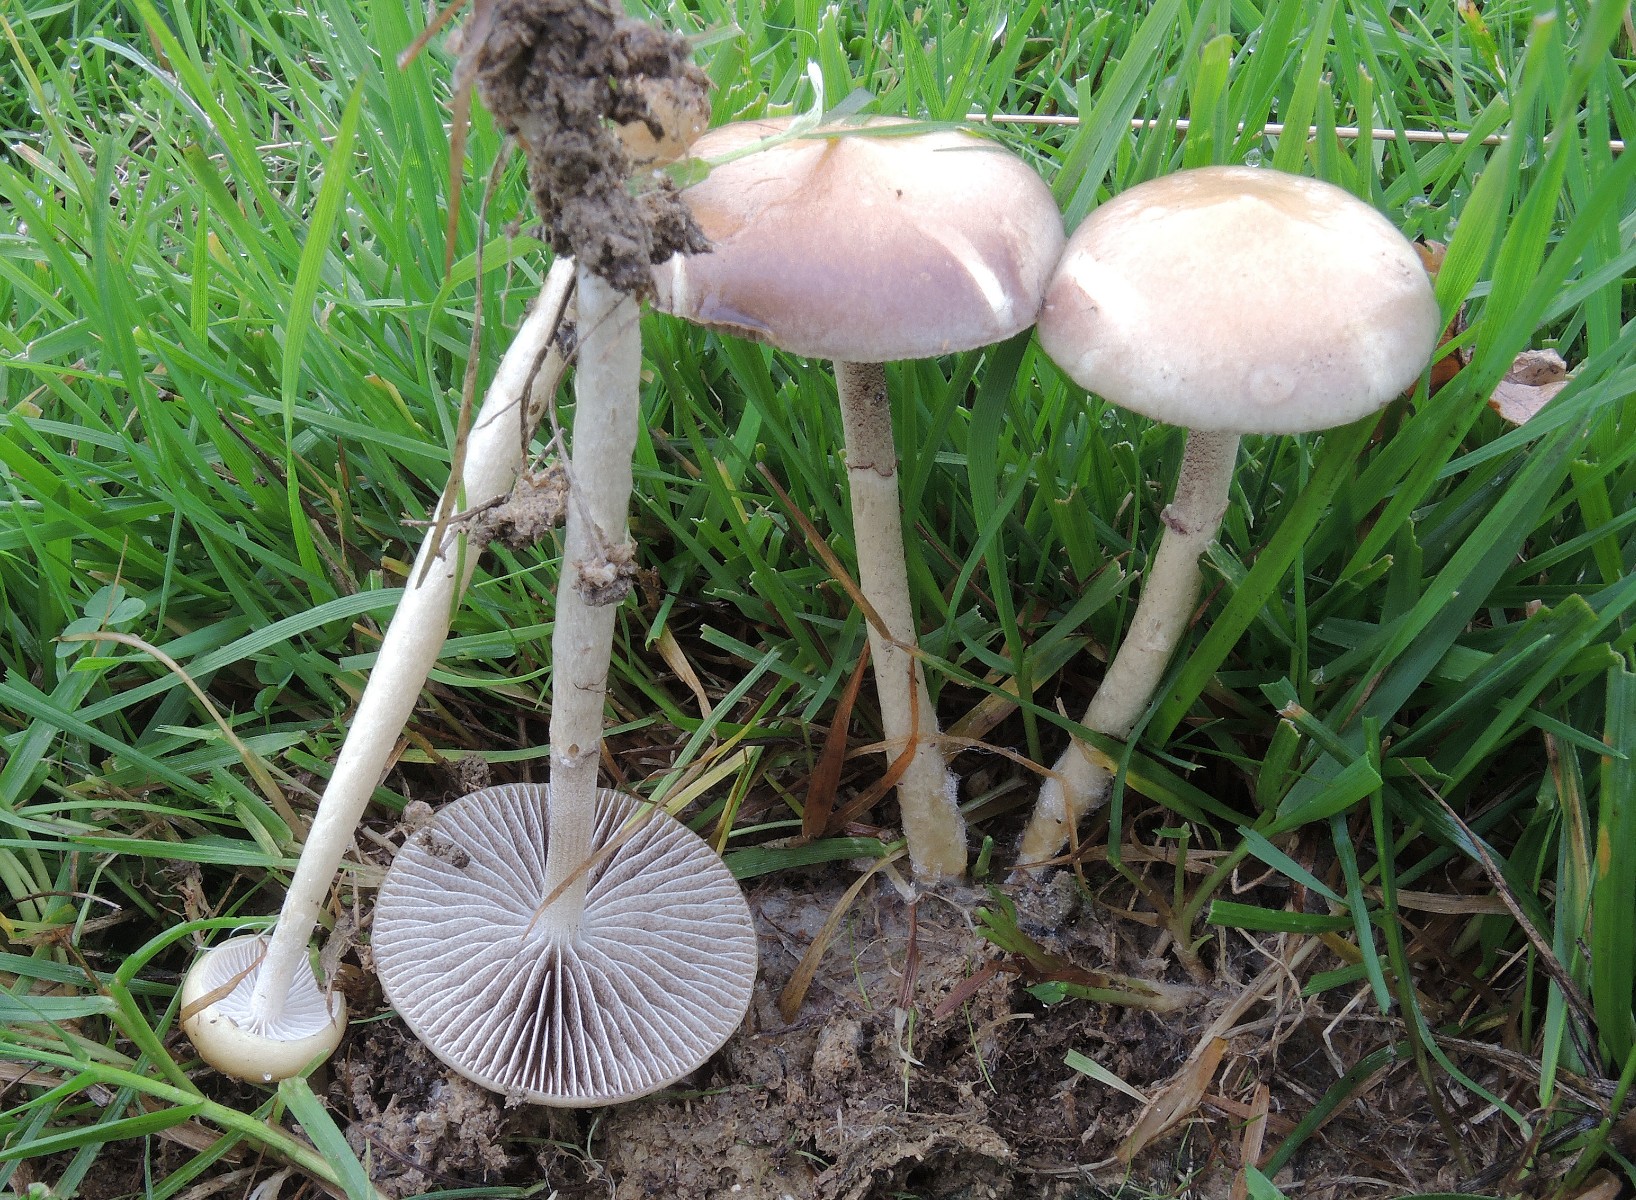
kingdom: Fungi
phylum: Basidiomycota
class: Agaricomycetes
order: Agaricales
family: Strophariaceae
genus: Protostropharia
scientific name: Protostropharia semiglobata
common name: halvkugleformet bredblad
